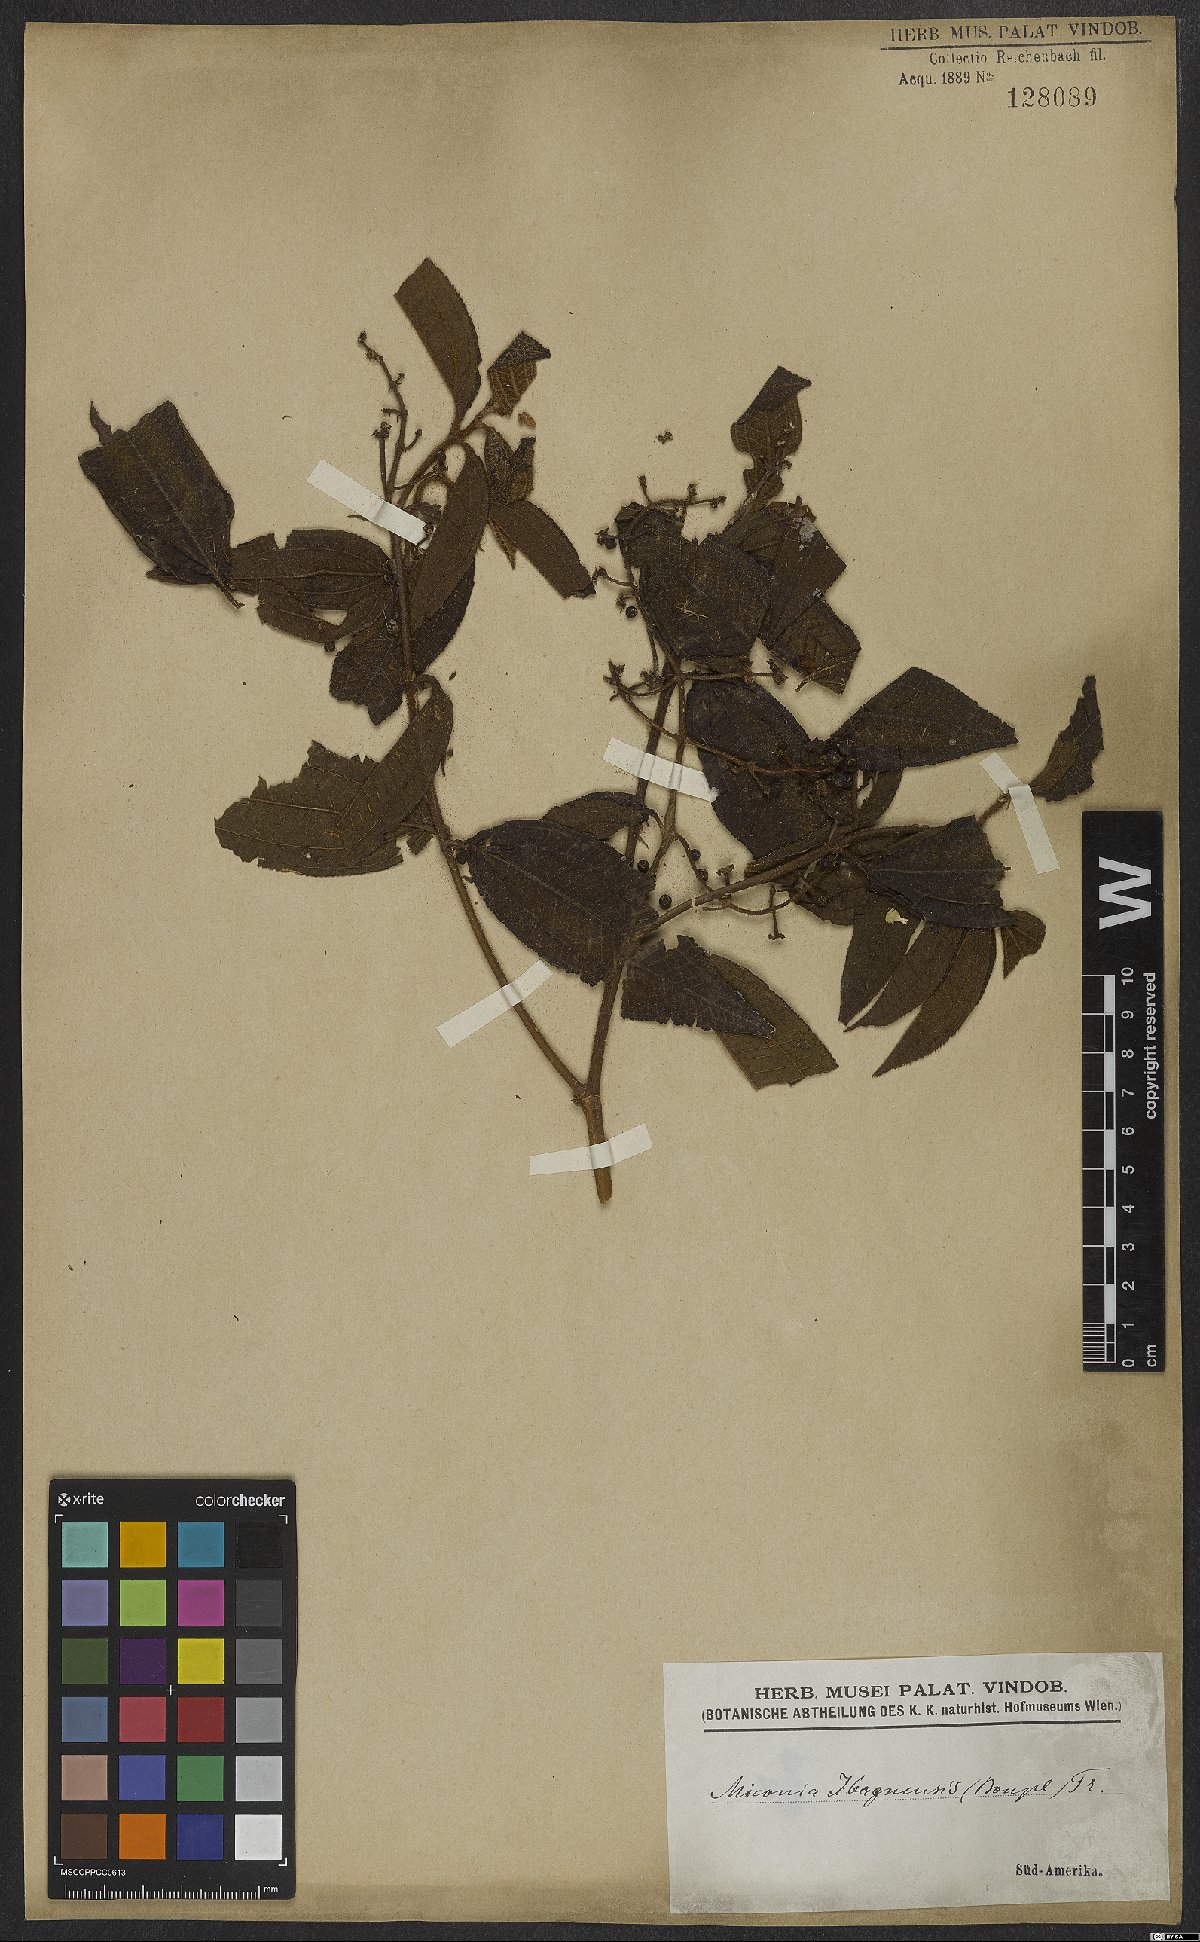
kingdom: Plantae
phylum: Tracheophyta
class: Magnoliopsida
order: Myrtales
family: Melastomataceae
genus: Miconia
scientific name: Miconia ibaguensis
